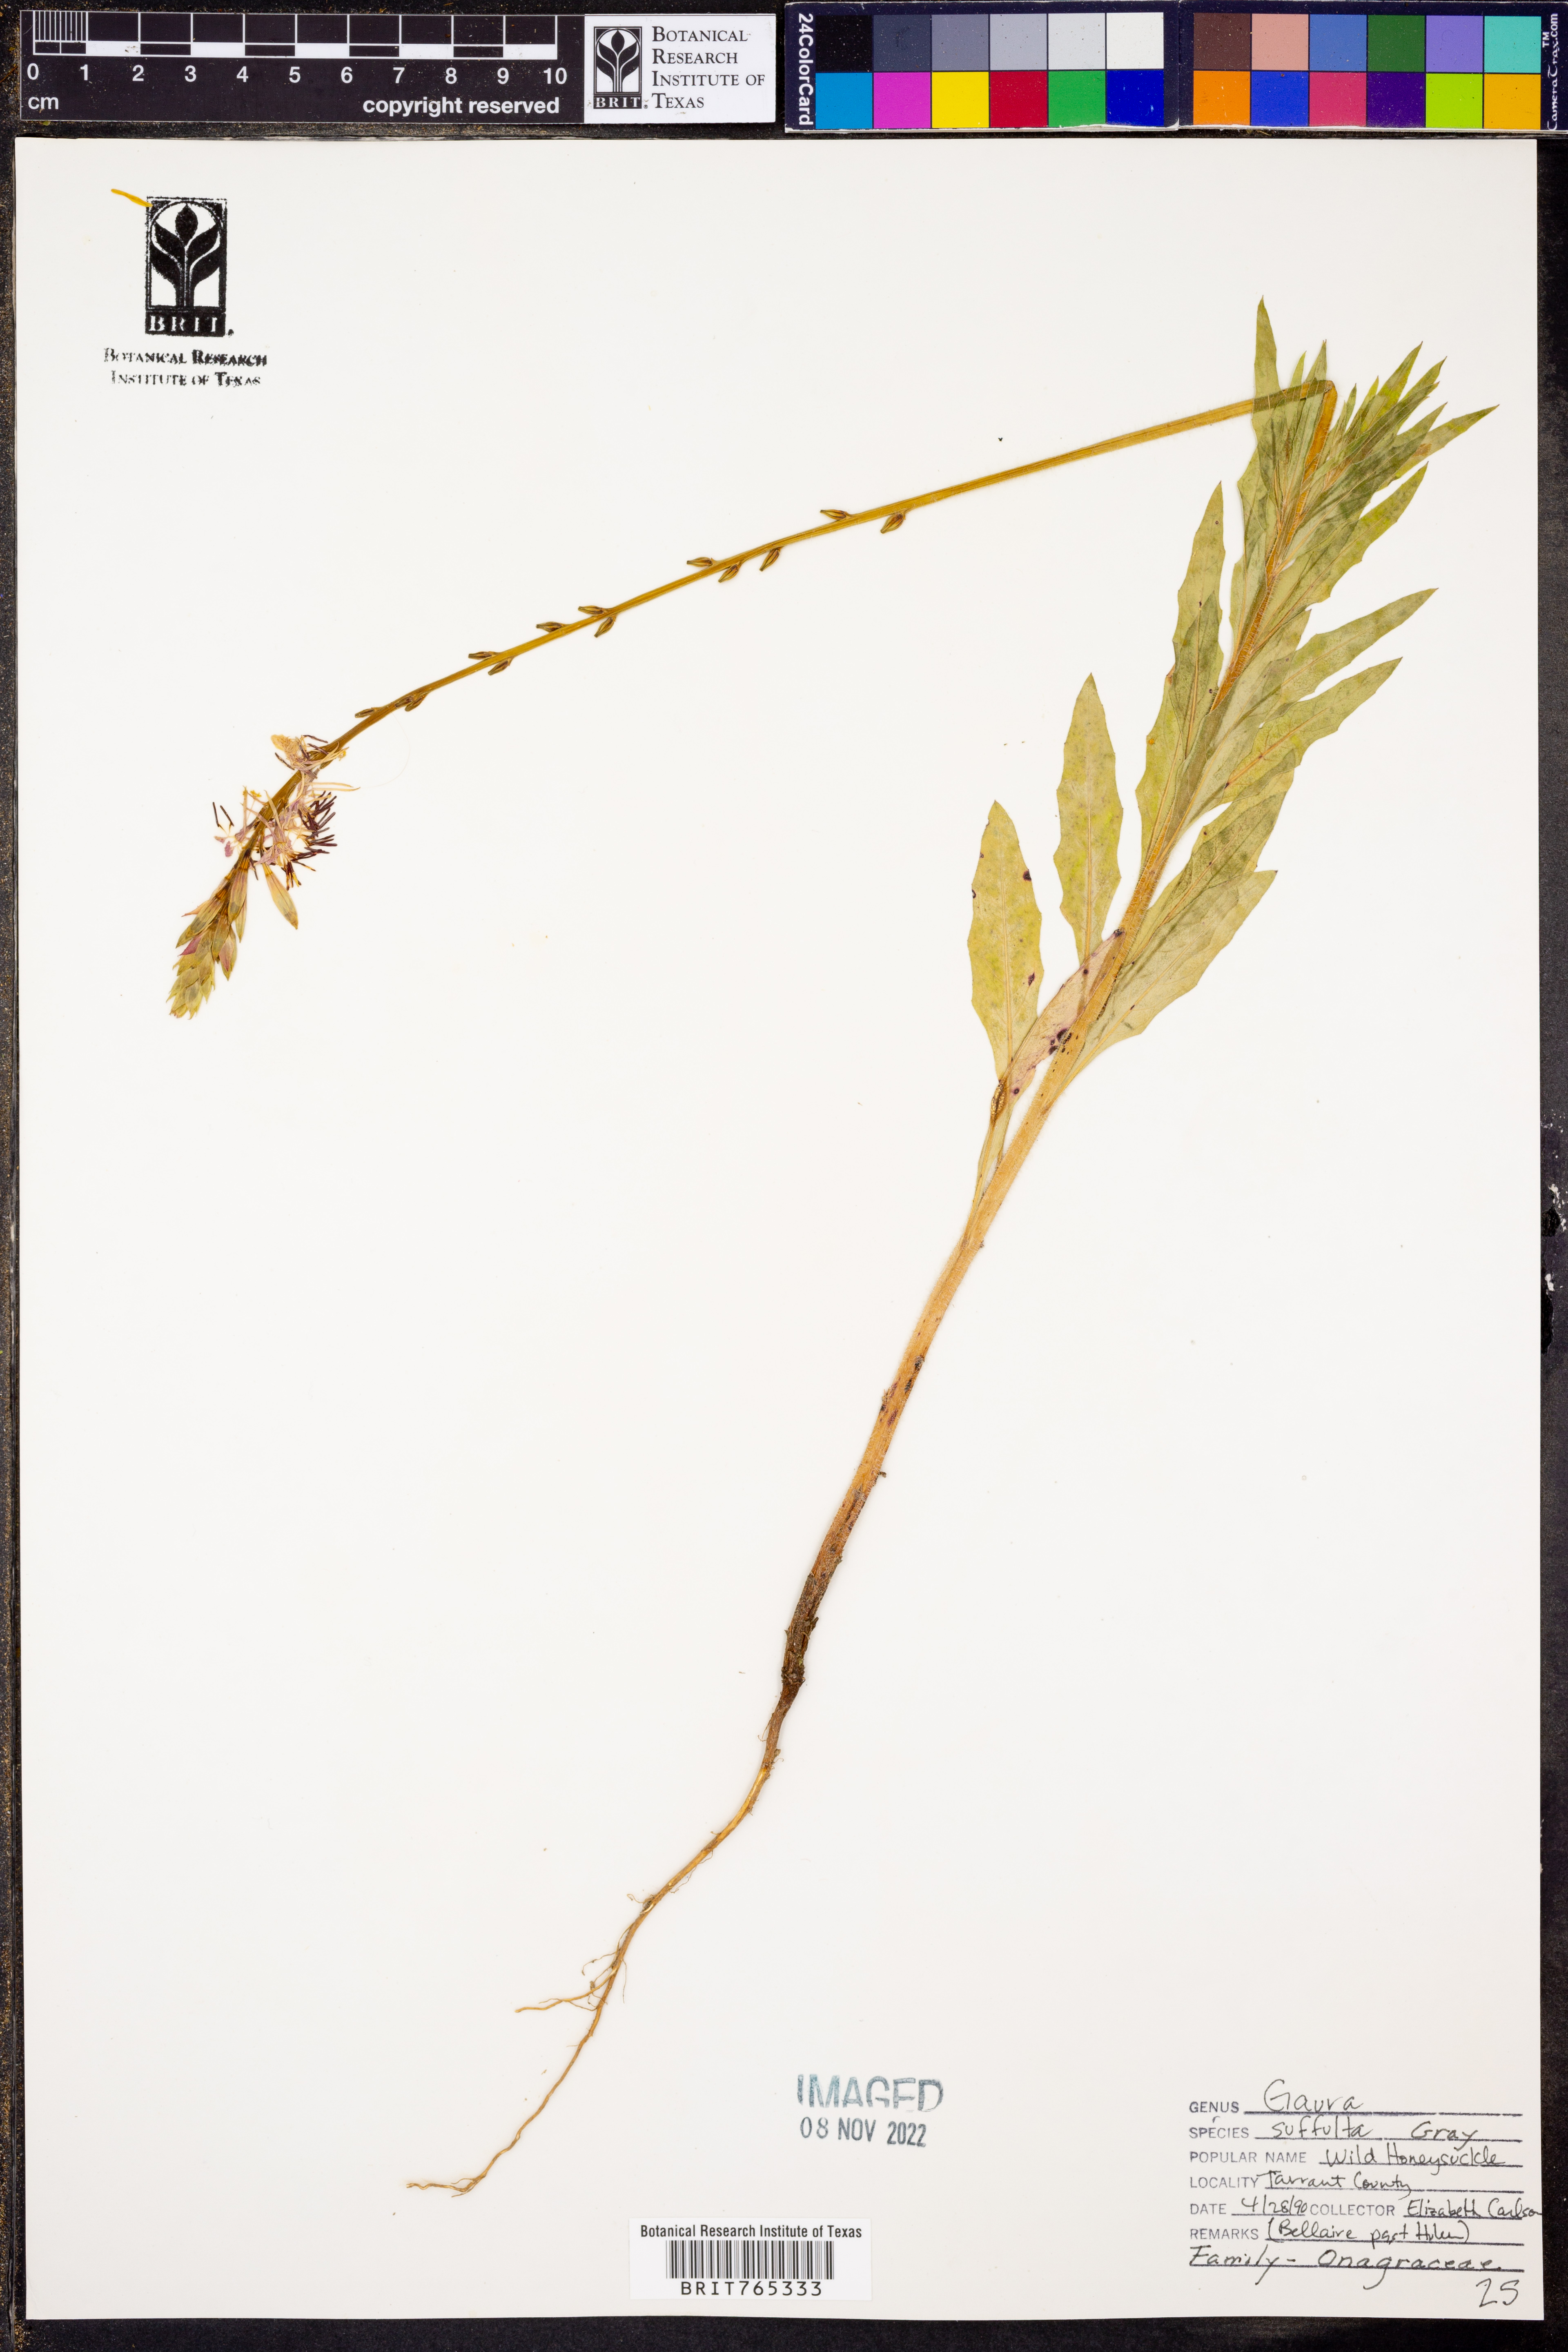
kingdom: Plantae
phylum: Tracheophyta
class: Magnoliopsida
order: Myrtales
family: Onagraceae
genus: Oenothera
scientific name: Oenothera Gaura suffulta
